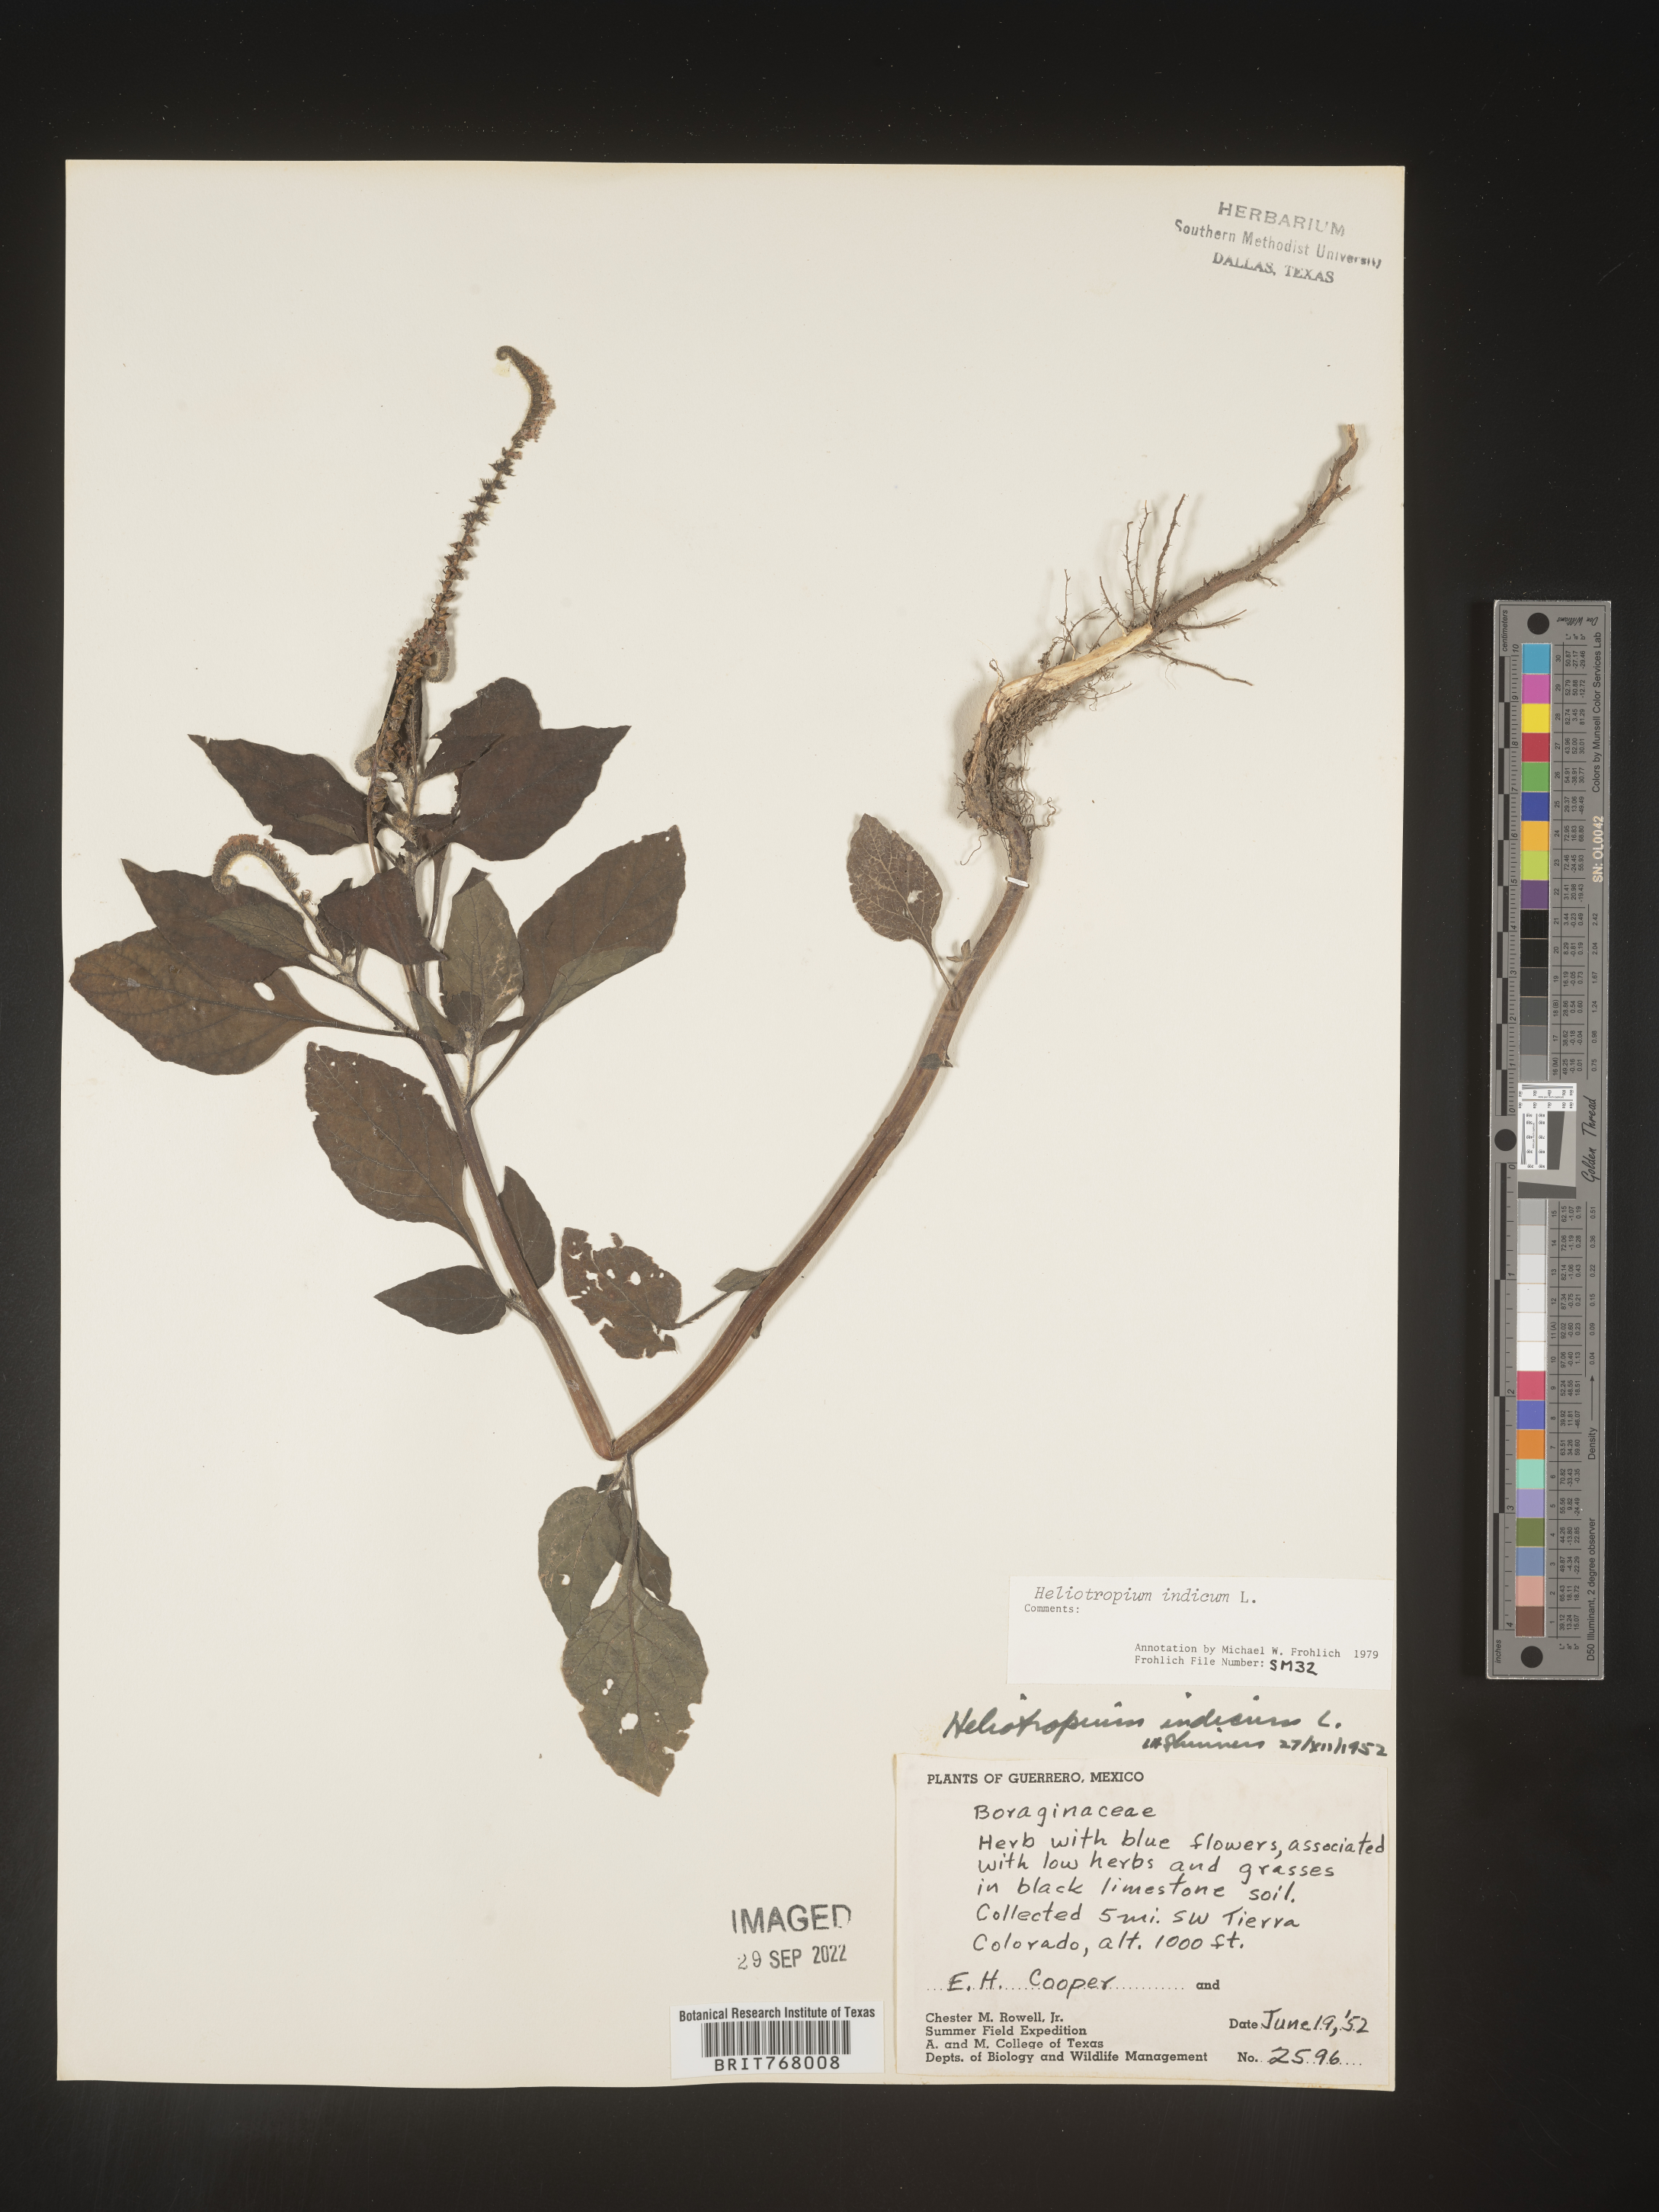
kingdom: Plantae
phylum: Tracheophyta
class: Magnoliopsida
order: Boraginales
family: Heliotropiaceae
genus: Heliotropium
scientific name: Heliotropium
